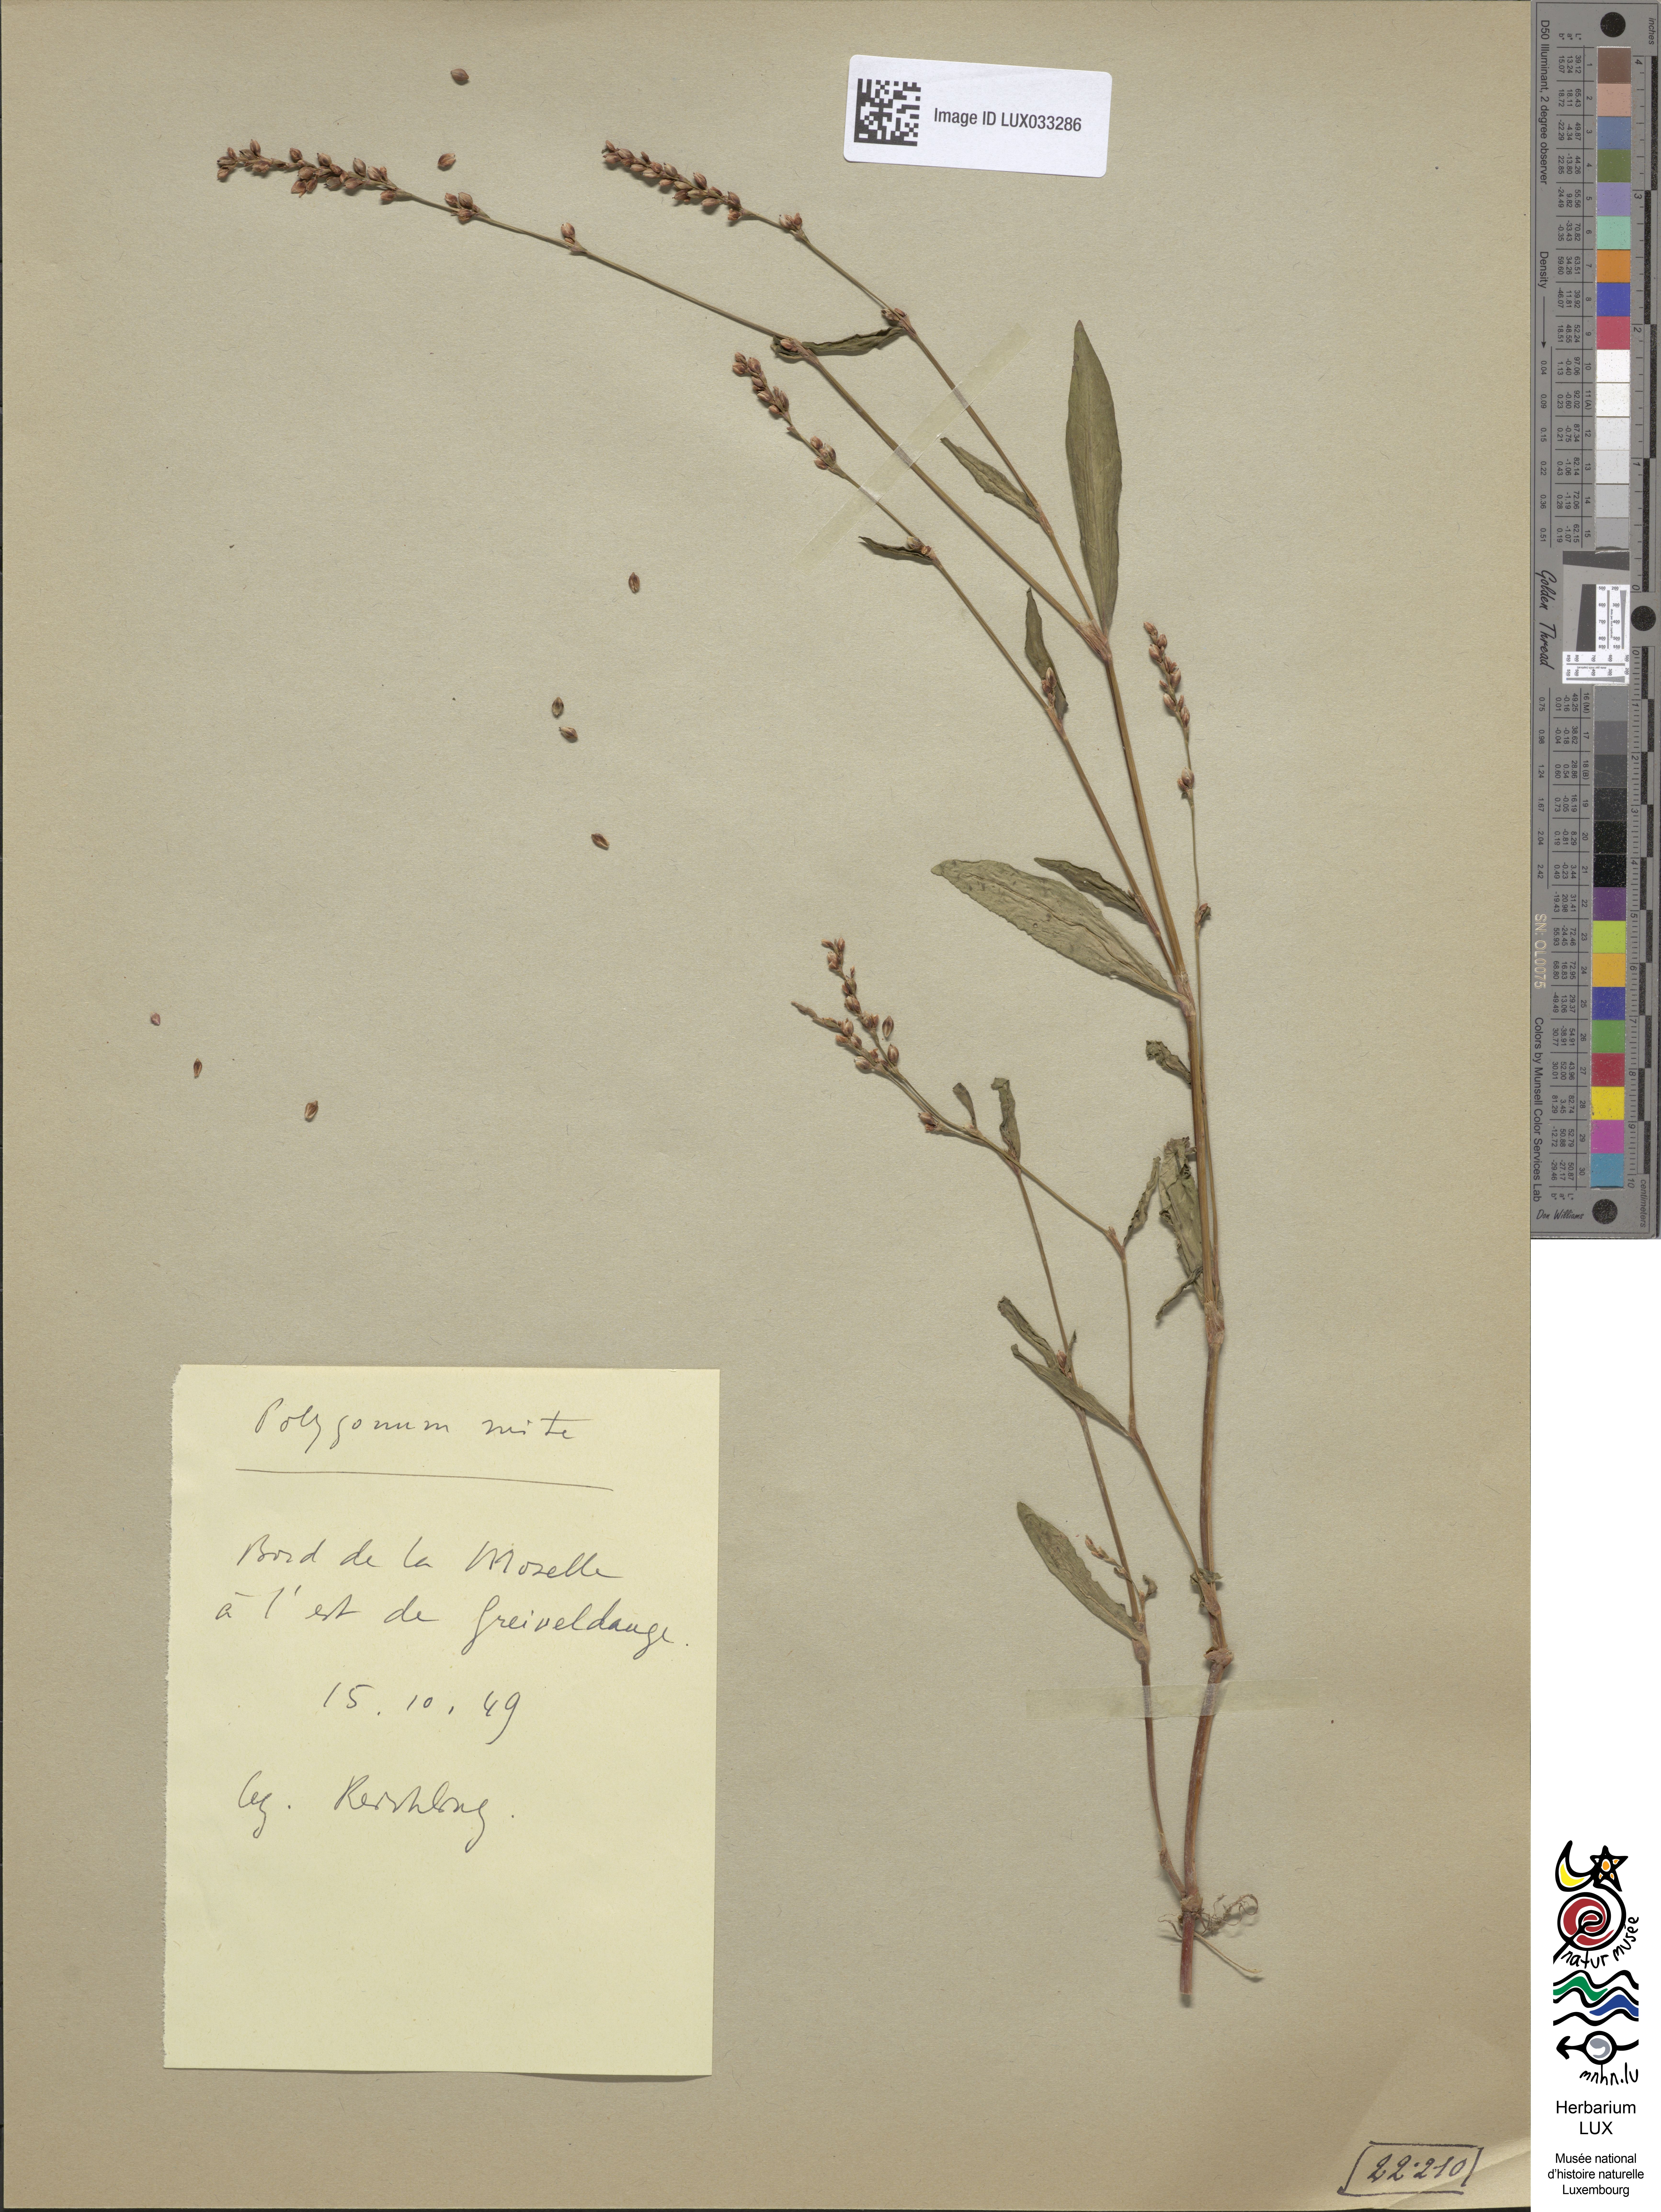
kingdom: Plantae
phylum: Tracheophyta
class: Magnoliopsida
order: Caryophyllales
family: Polygonaceae
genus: Persicaria
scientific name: Persicaria mitis
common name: Tasteless water-pepper
